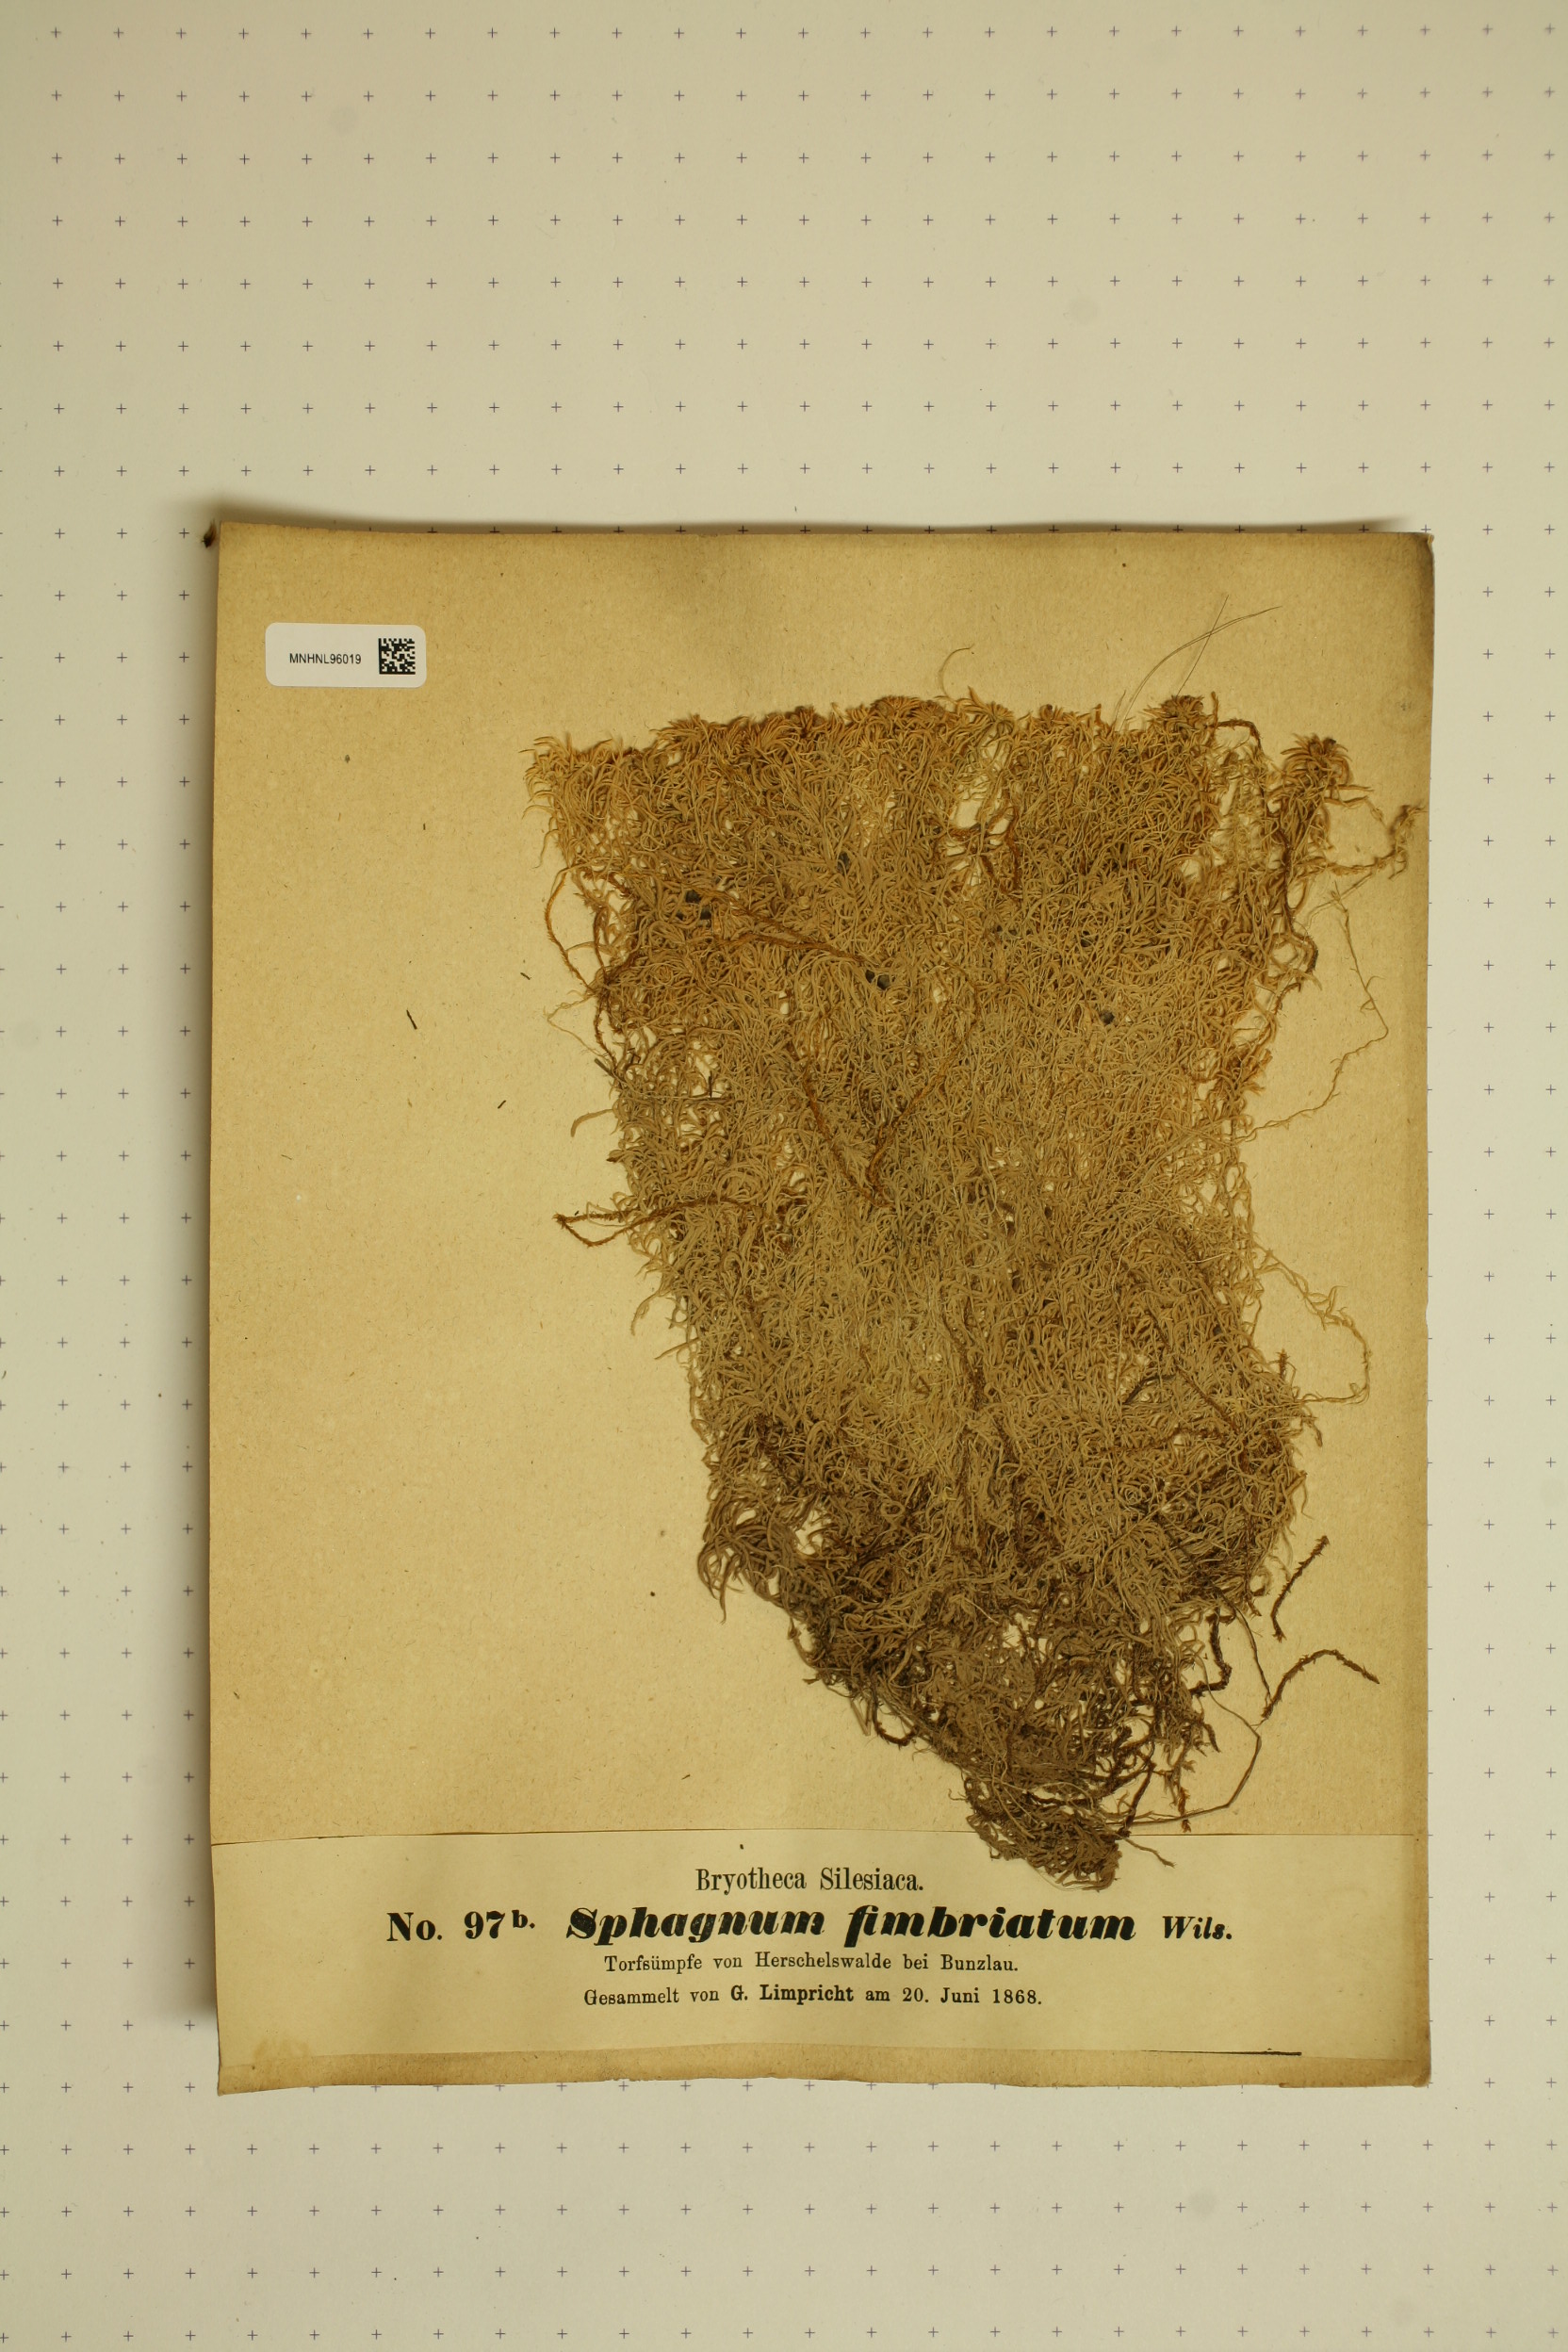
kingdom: Plantae
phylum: Bryophyta
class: Sphagnopsida
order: Sphagnales
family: Sphagnaceae
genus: Sphagnum
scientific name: Sphagnum fimbriatum
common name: Fringed peat moss
